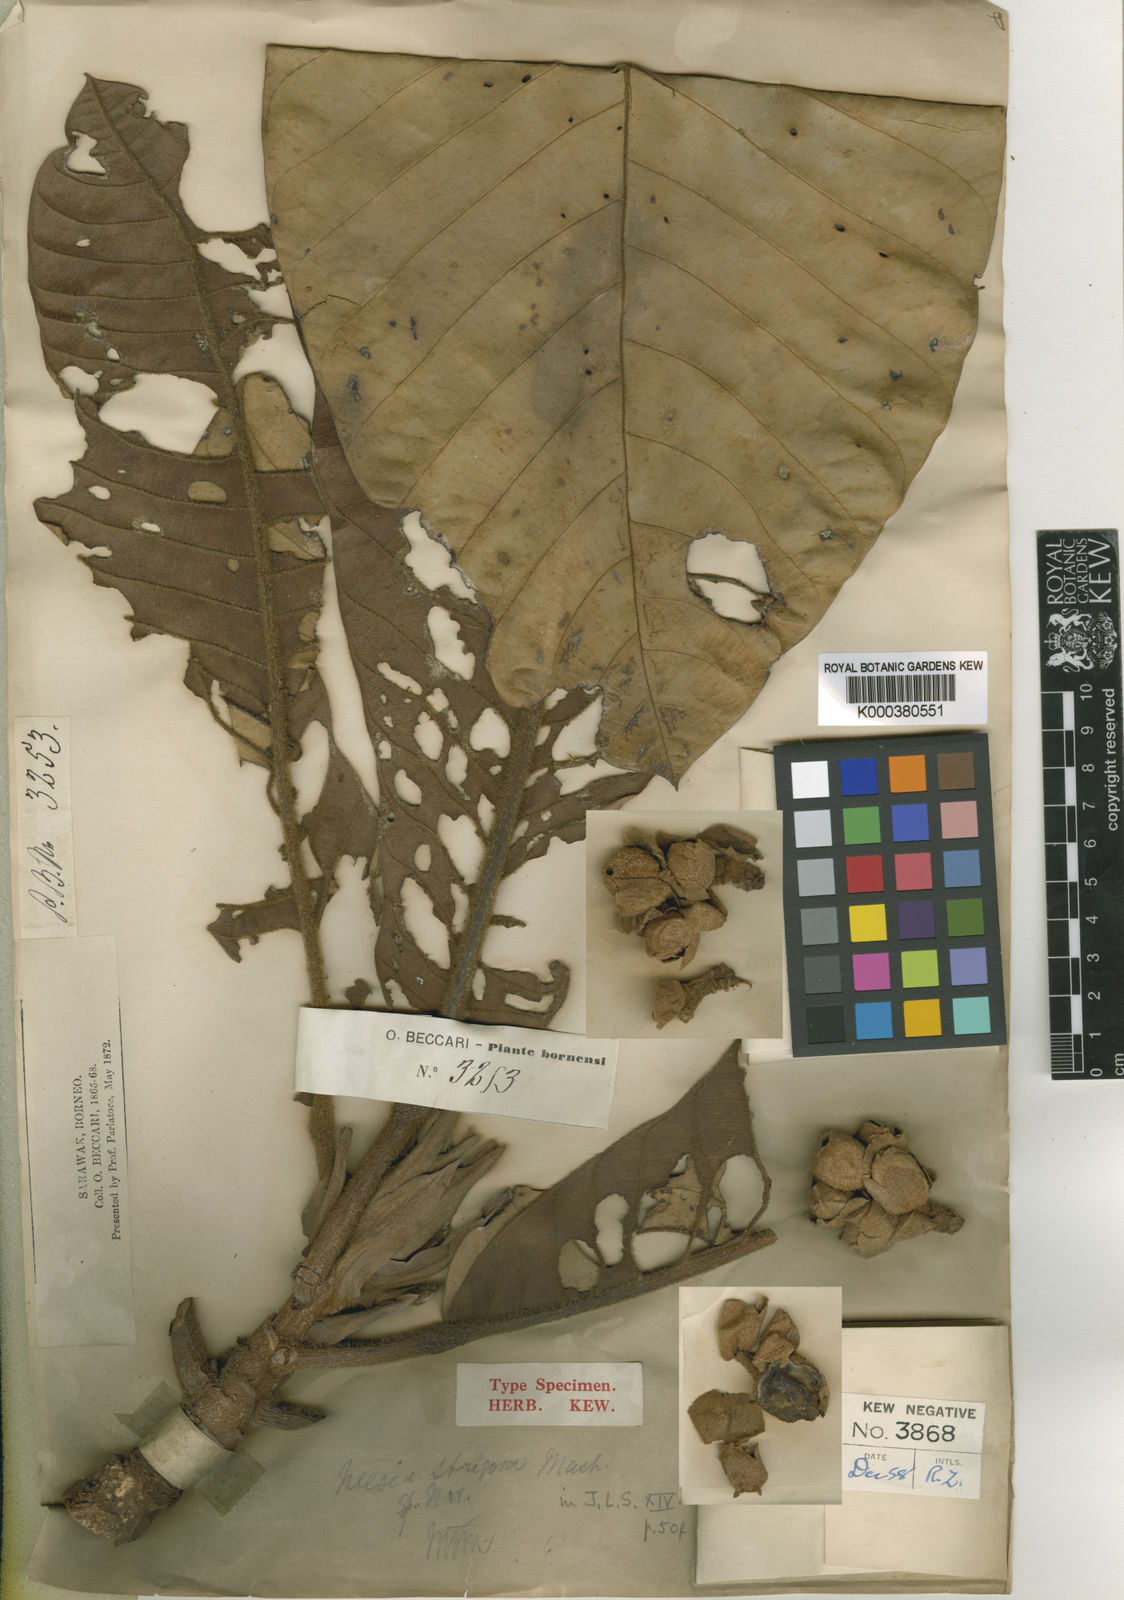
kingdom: Plantae
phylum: Tracheophyta
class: Magnoliopsida
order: Malvales
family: Malvaceae
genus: Neesia
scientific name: Neesia strigosa
